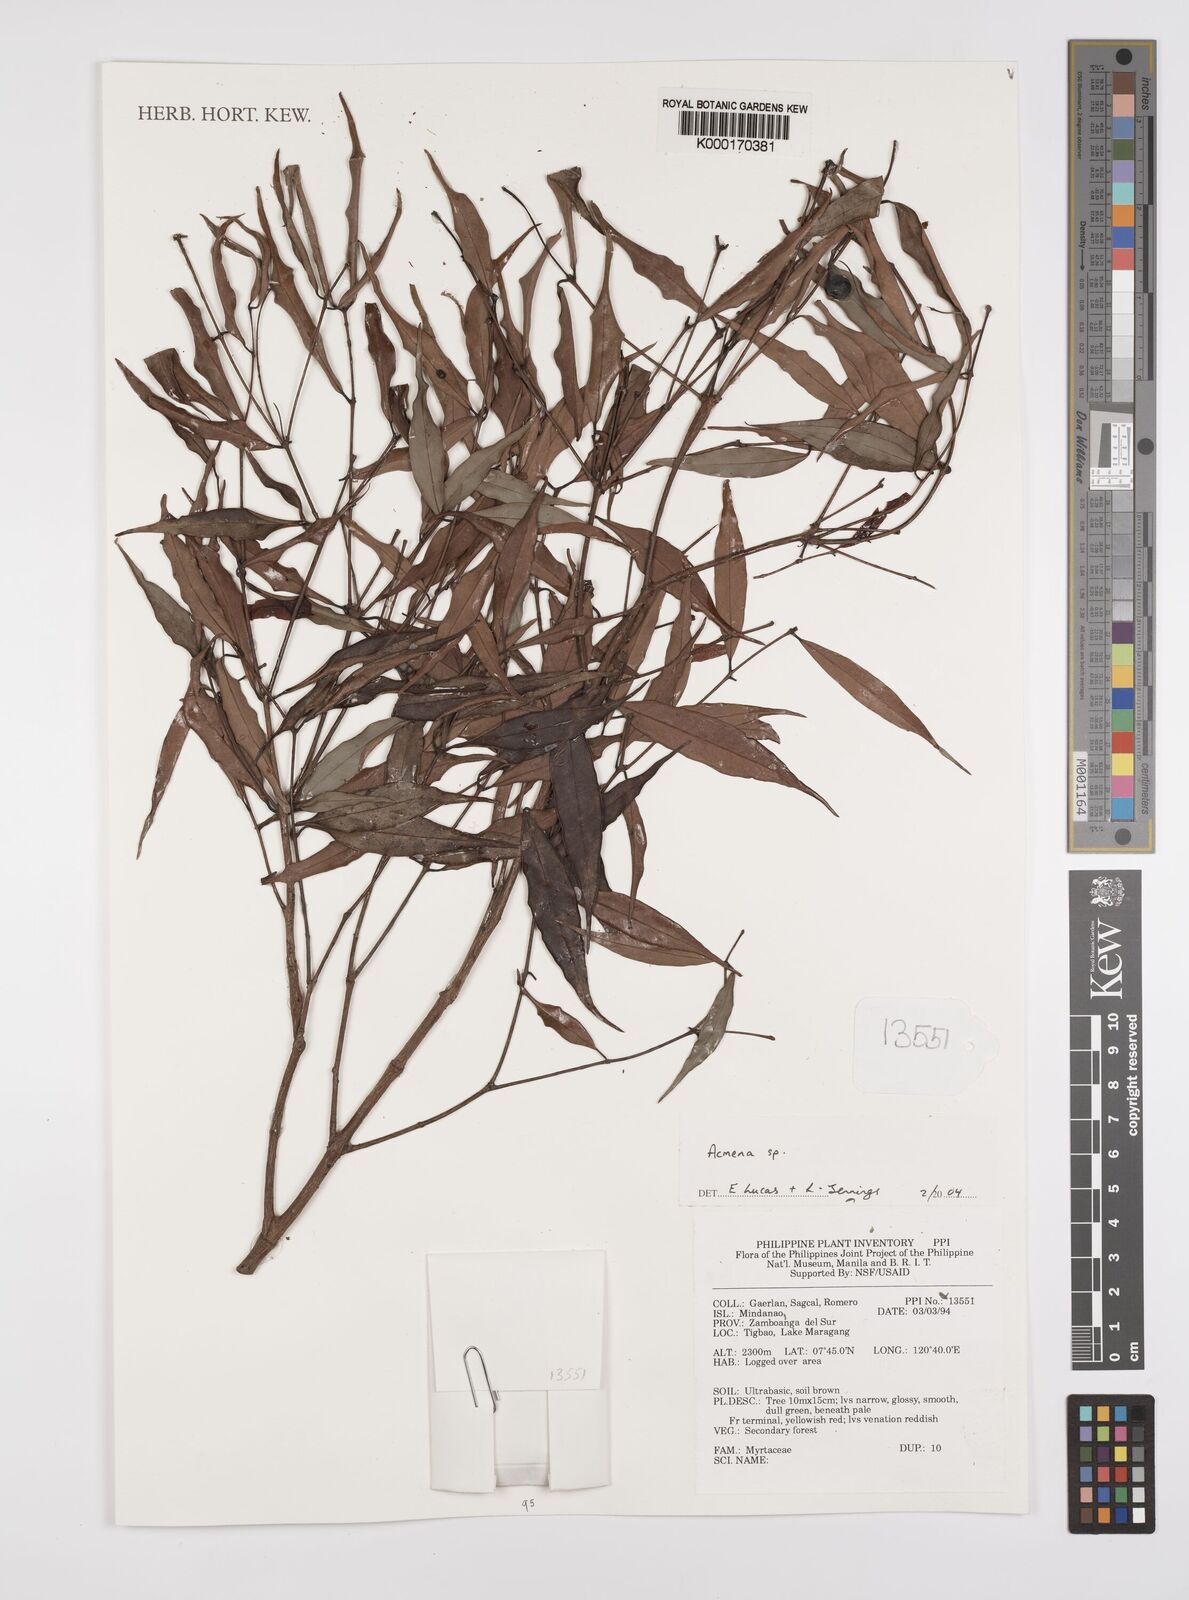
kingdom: Plantae
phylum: Tracheophyta
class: Magnoliopsida
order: Myrtales
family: Myrtaceae
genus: Syzygium
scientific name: Syzygium
